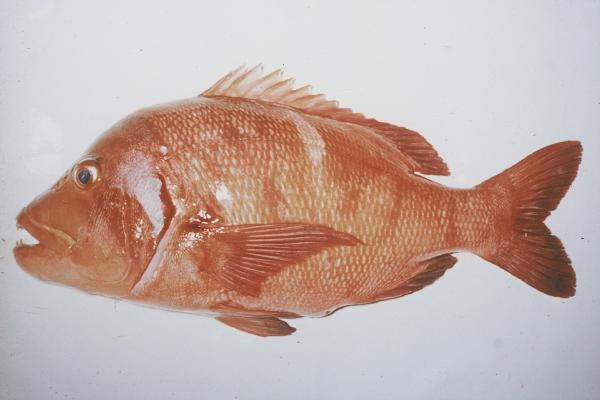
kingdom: Animalia
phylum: Chordata
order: Perciformes
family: Sparidae
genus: Chrysoblephus
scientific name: Chrysoblephus laticeps
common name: Roman seabream
